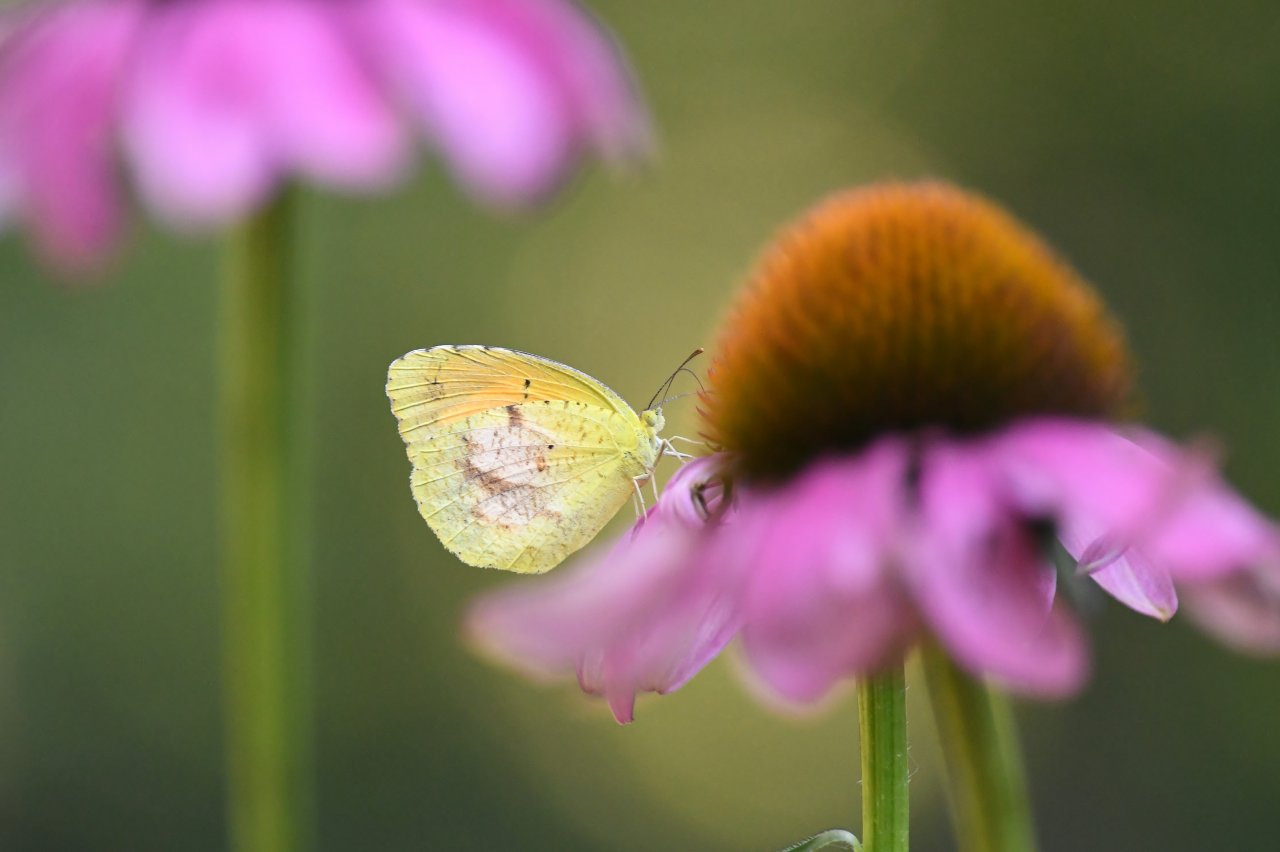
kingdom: Animalia
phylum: Arthropoda
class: Insecta
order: Lepidoptera
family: Pieridae
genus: Abaeis
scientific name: Abaeis nicippe
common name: Sleepy Orange
